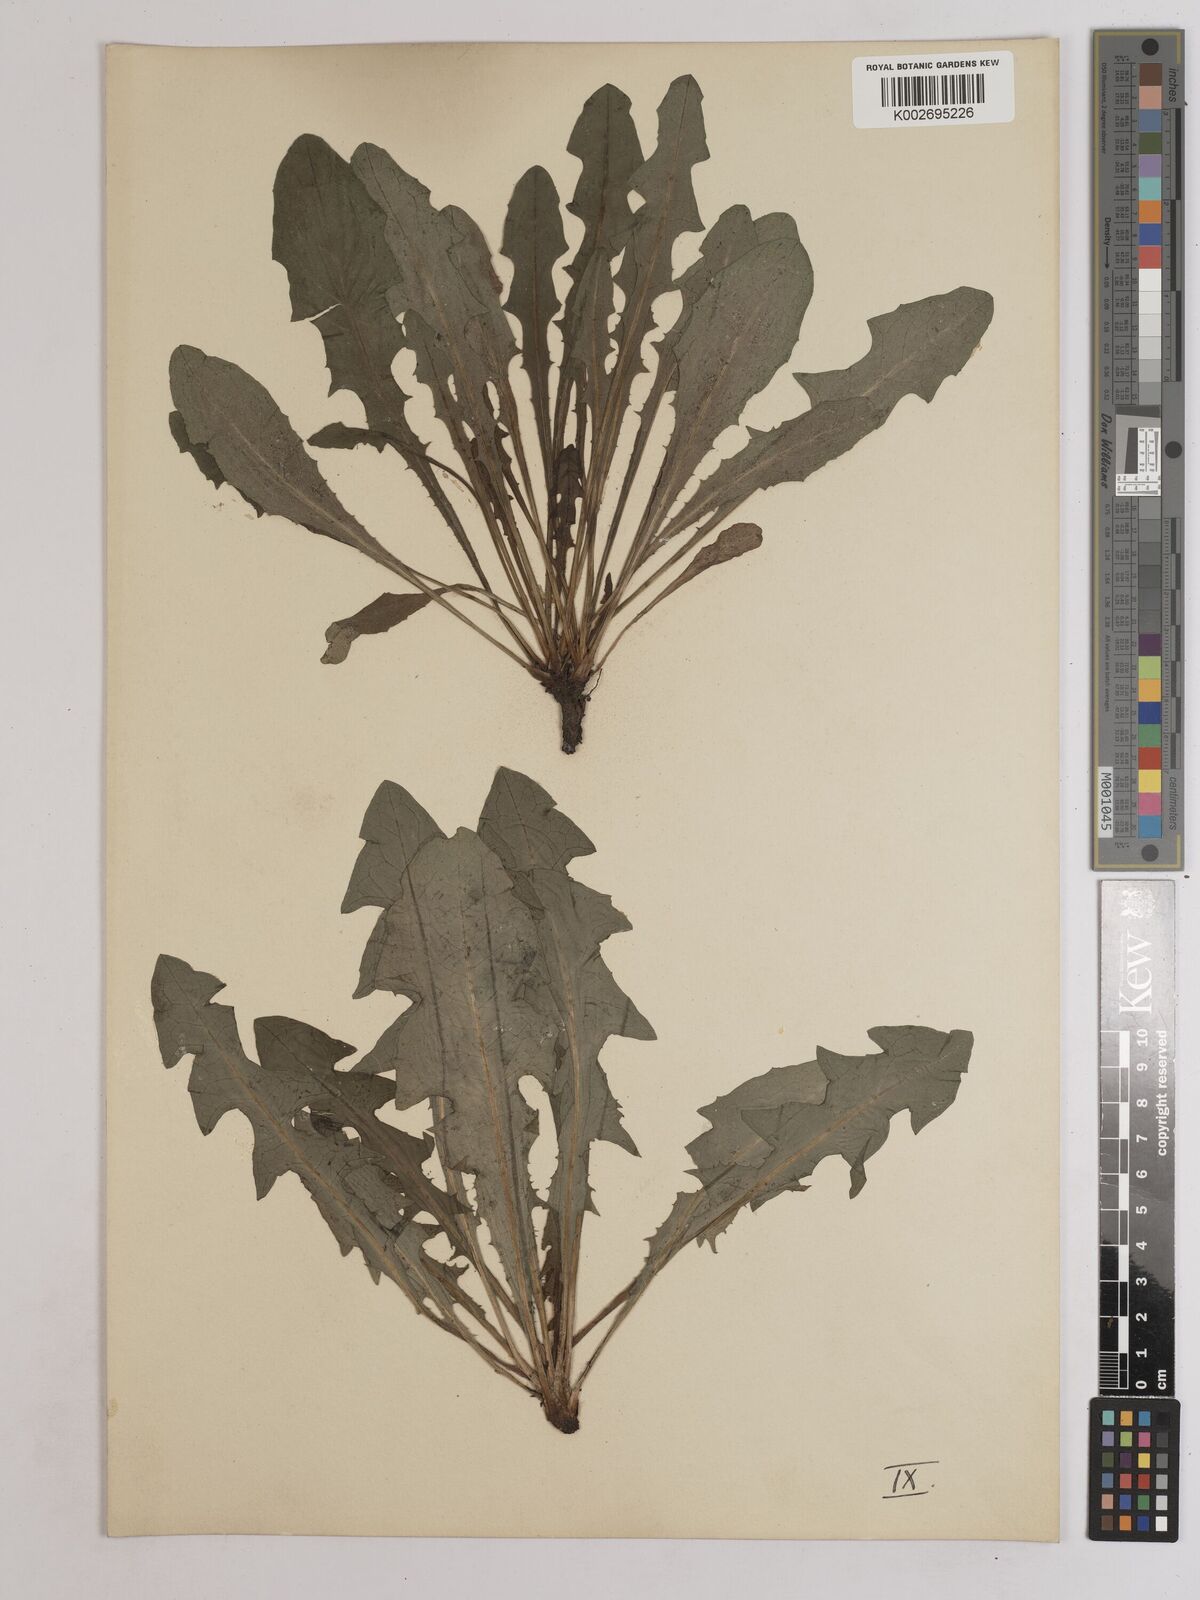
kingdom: Plantae
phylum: Tracheophyta
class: Magnoliopsida
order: Asterales
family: Asteraceae
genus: Taraxacum
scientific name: Taraxacum officinale
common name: Common dandelion
